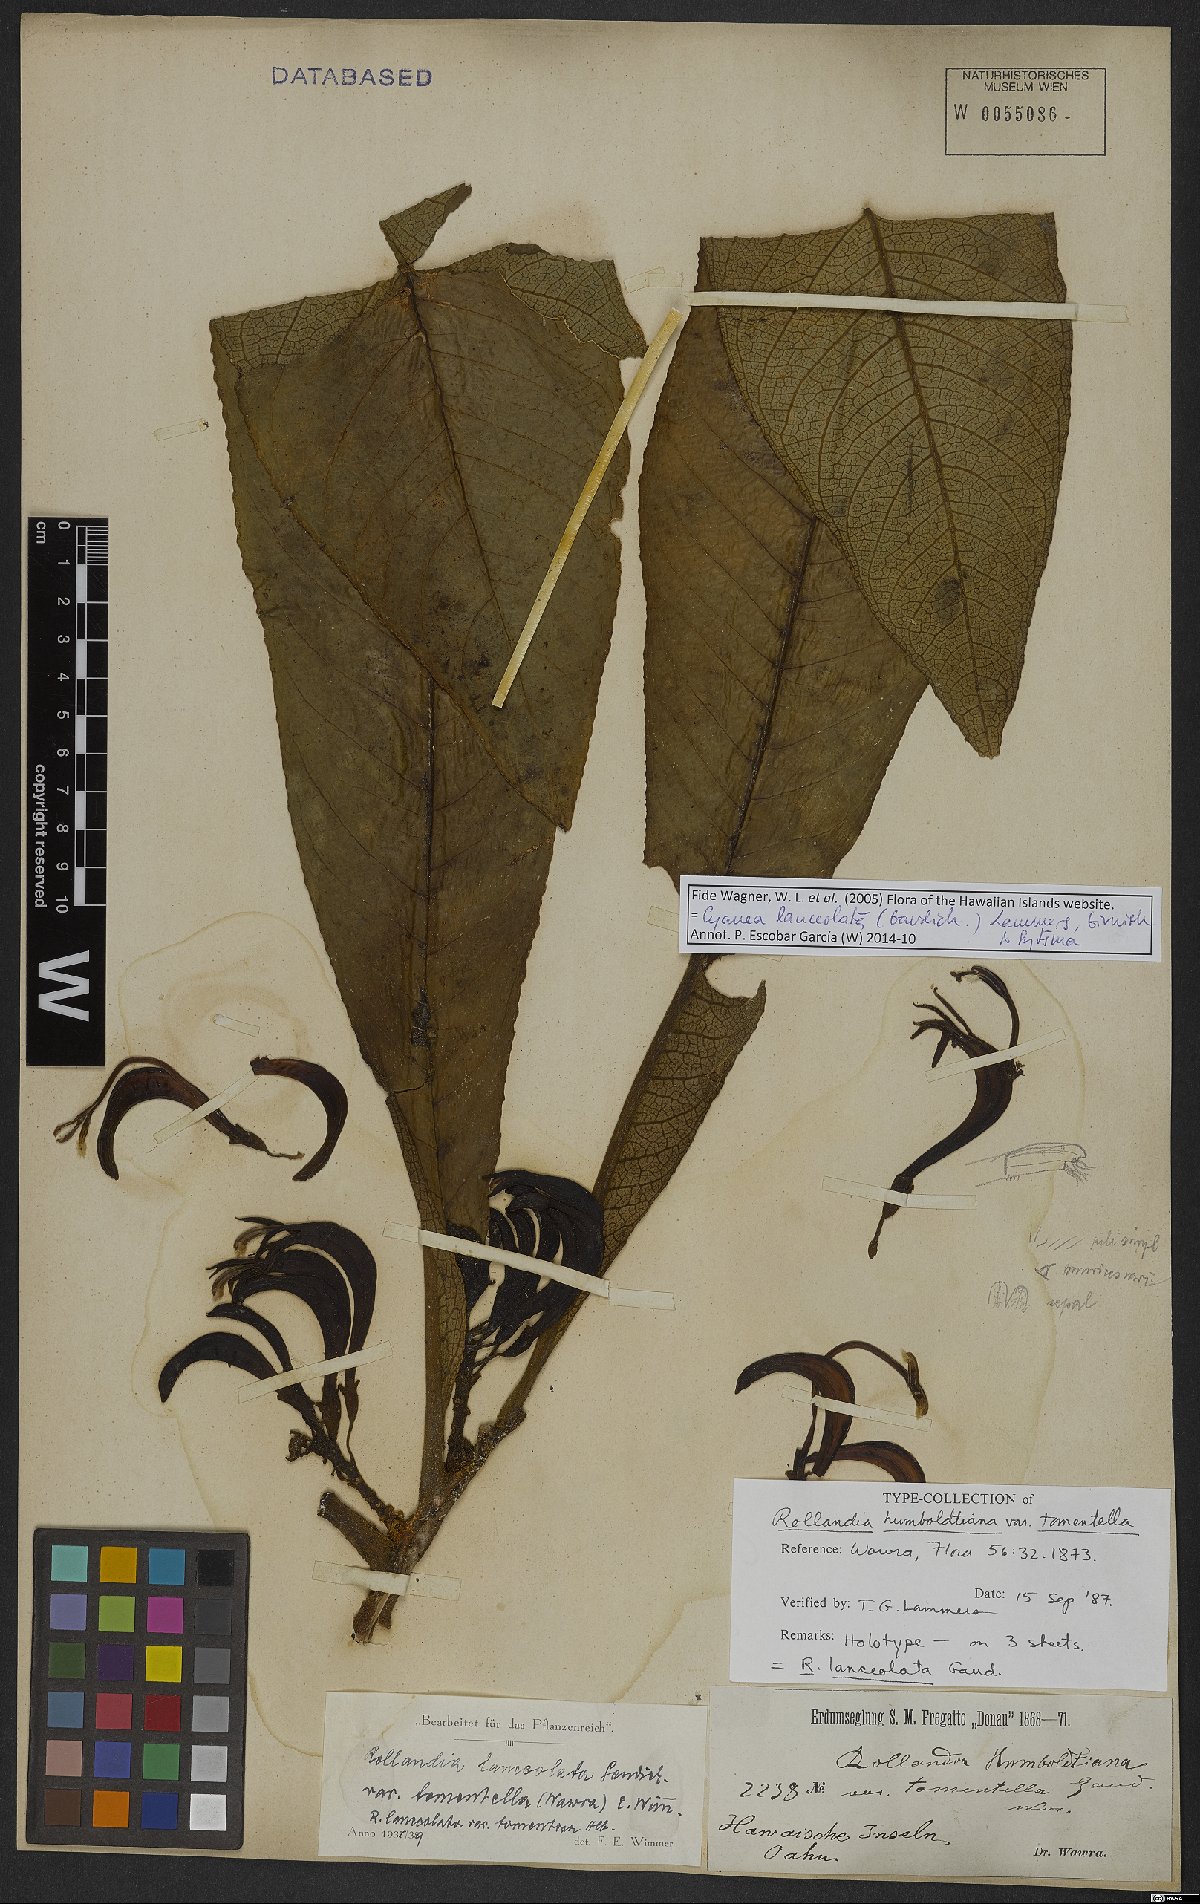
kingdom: Plantae
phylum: Tracheophyta
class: Magnoliopsida
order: Asterales
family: Campanulaceae
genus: Cyanea
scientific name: Cyanea lanceolata
